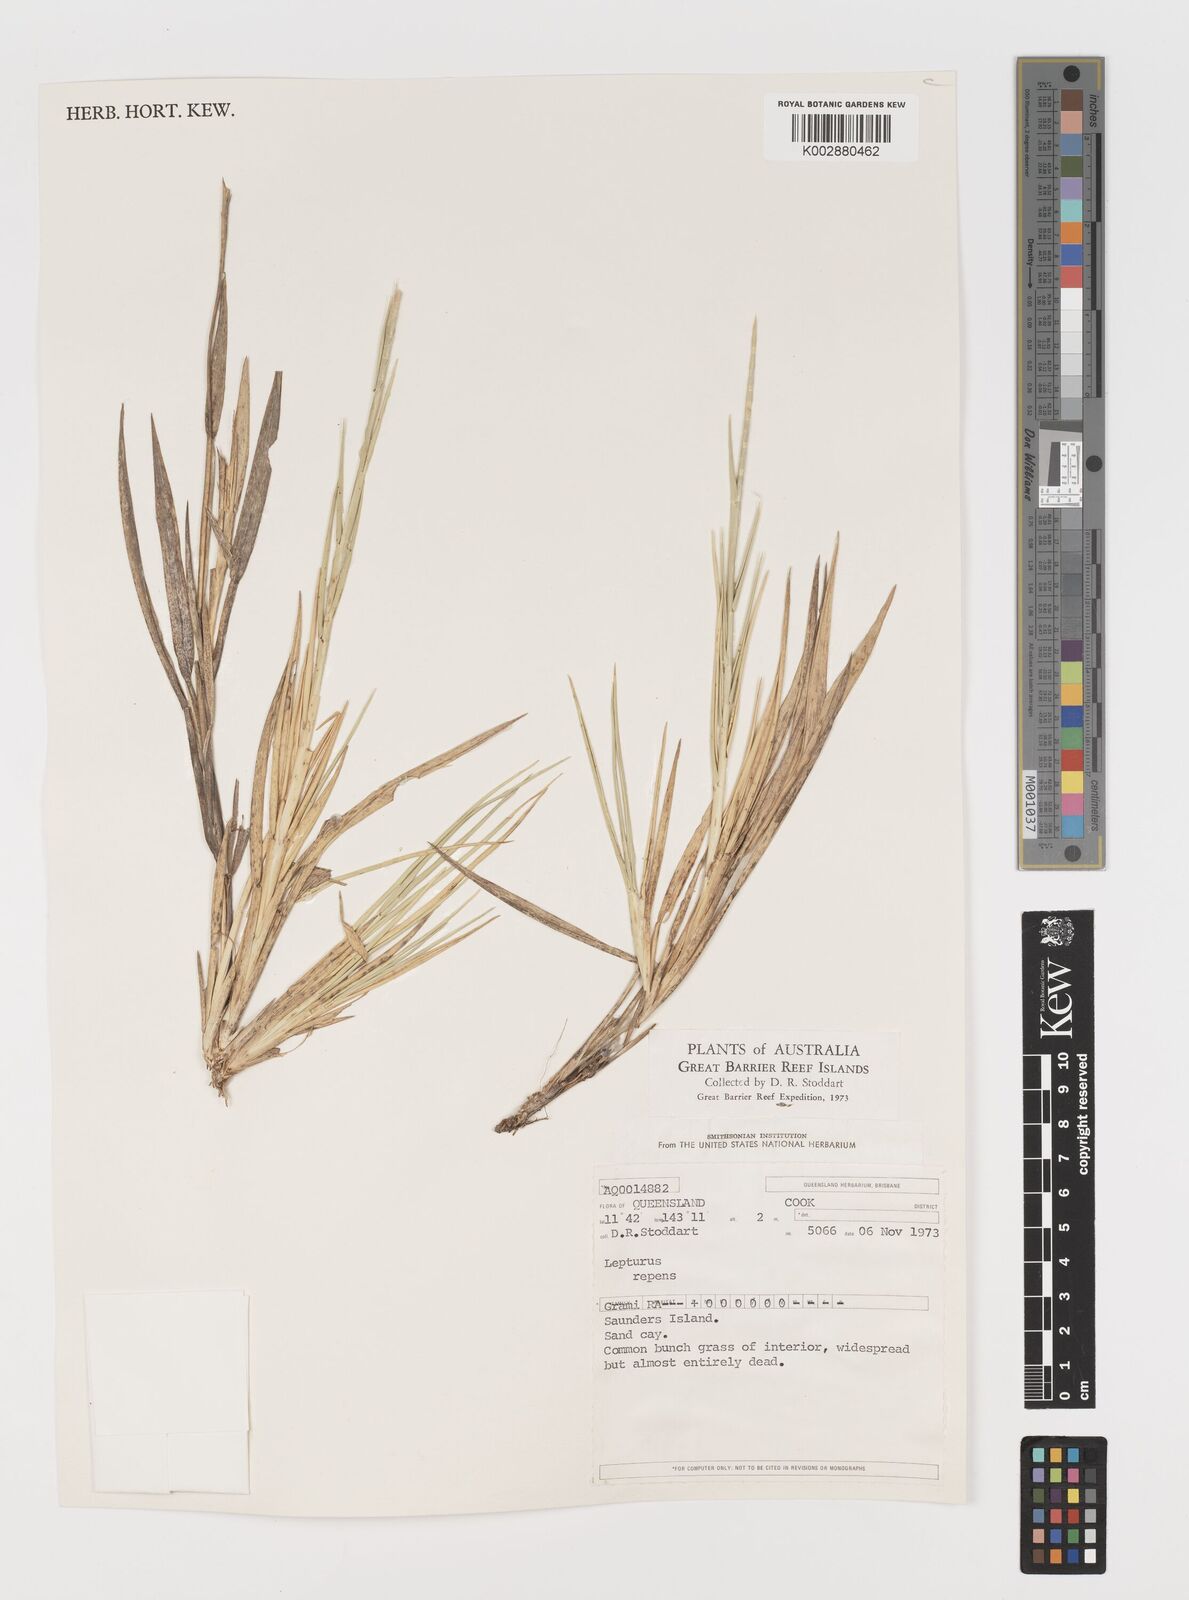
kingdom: Plantae
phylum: Tracheophyta
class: Liliopsida
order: Poales
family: Poaceae
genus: Lepturus
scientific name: Lepturus repens
